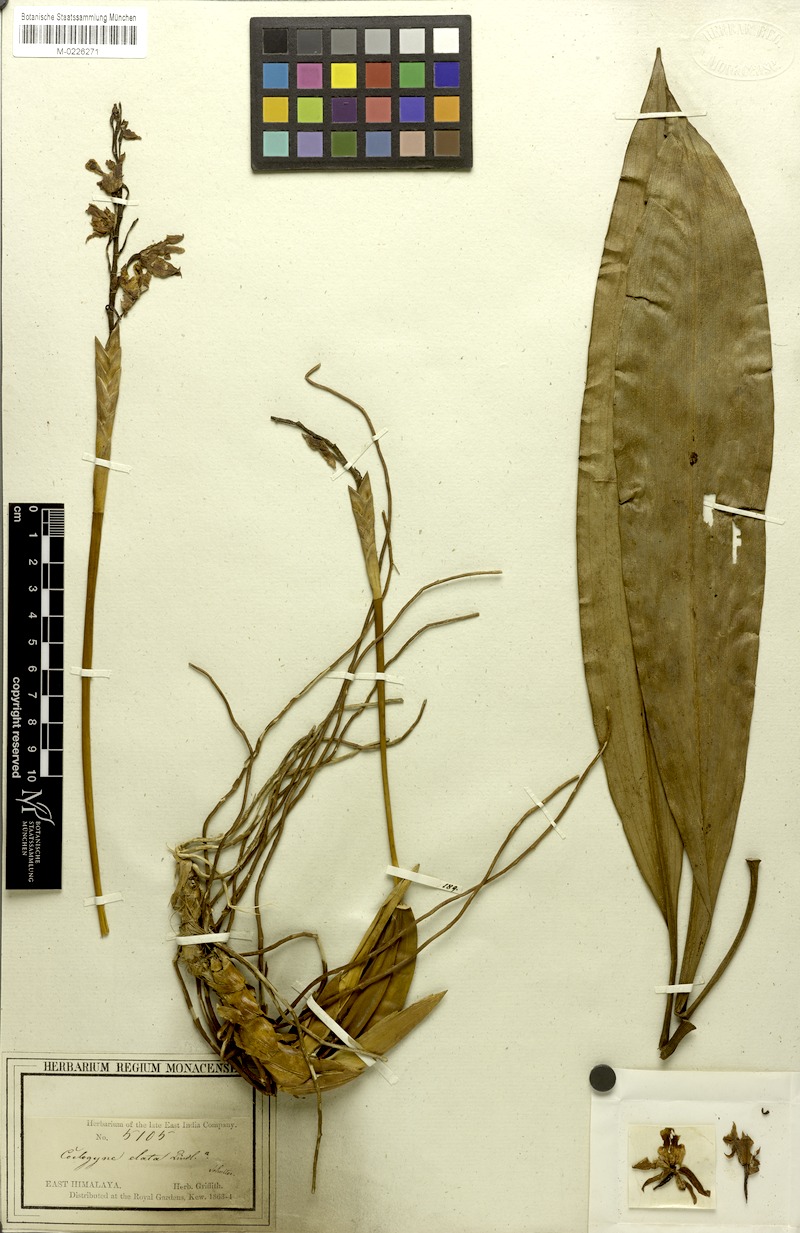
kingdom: Plantae
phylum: Tracheophyta
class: Liliopsida
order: Asparagales
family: Orchidaceae
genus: Coelogyne
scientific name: Coelogyne stricta
